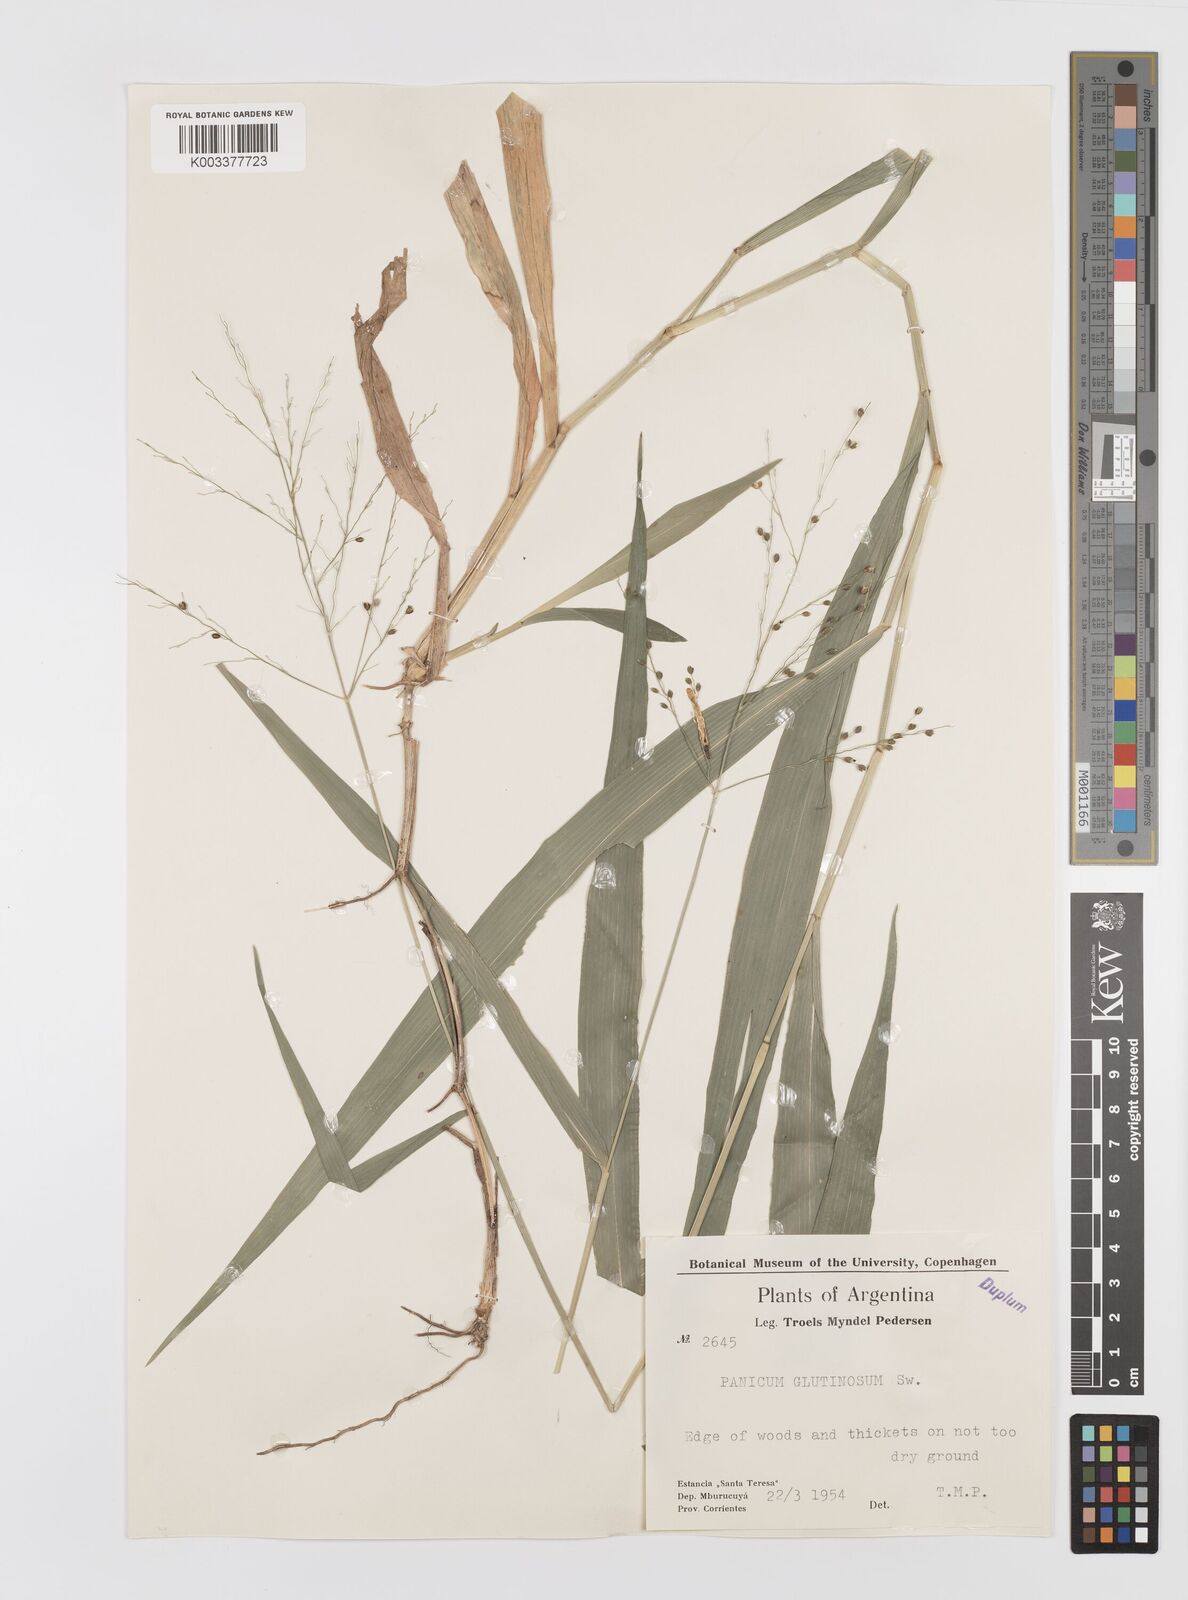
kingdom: Plantae
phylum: Tracheophyta
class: Liliopsida
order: Poales
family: Poaceae
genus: Homolepis
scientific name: Homolepis glutinosa
